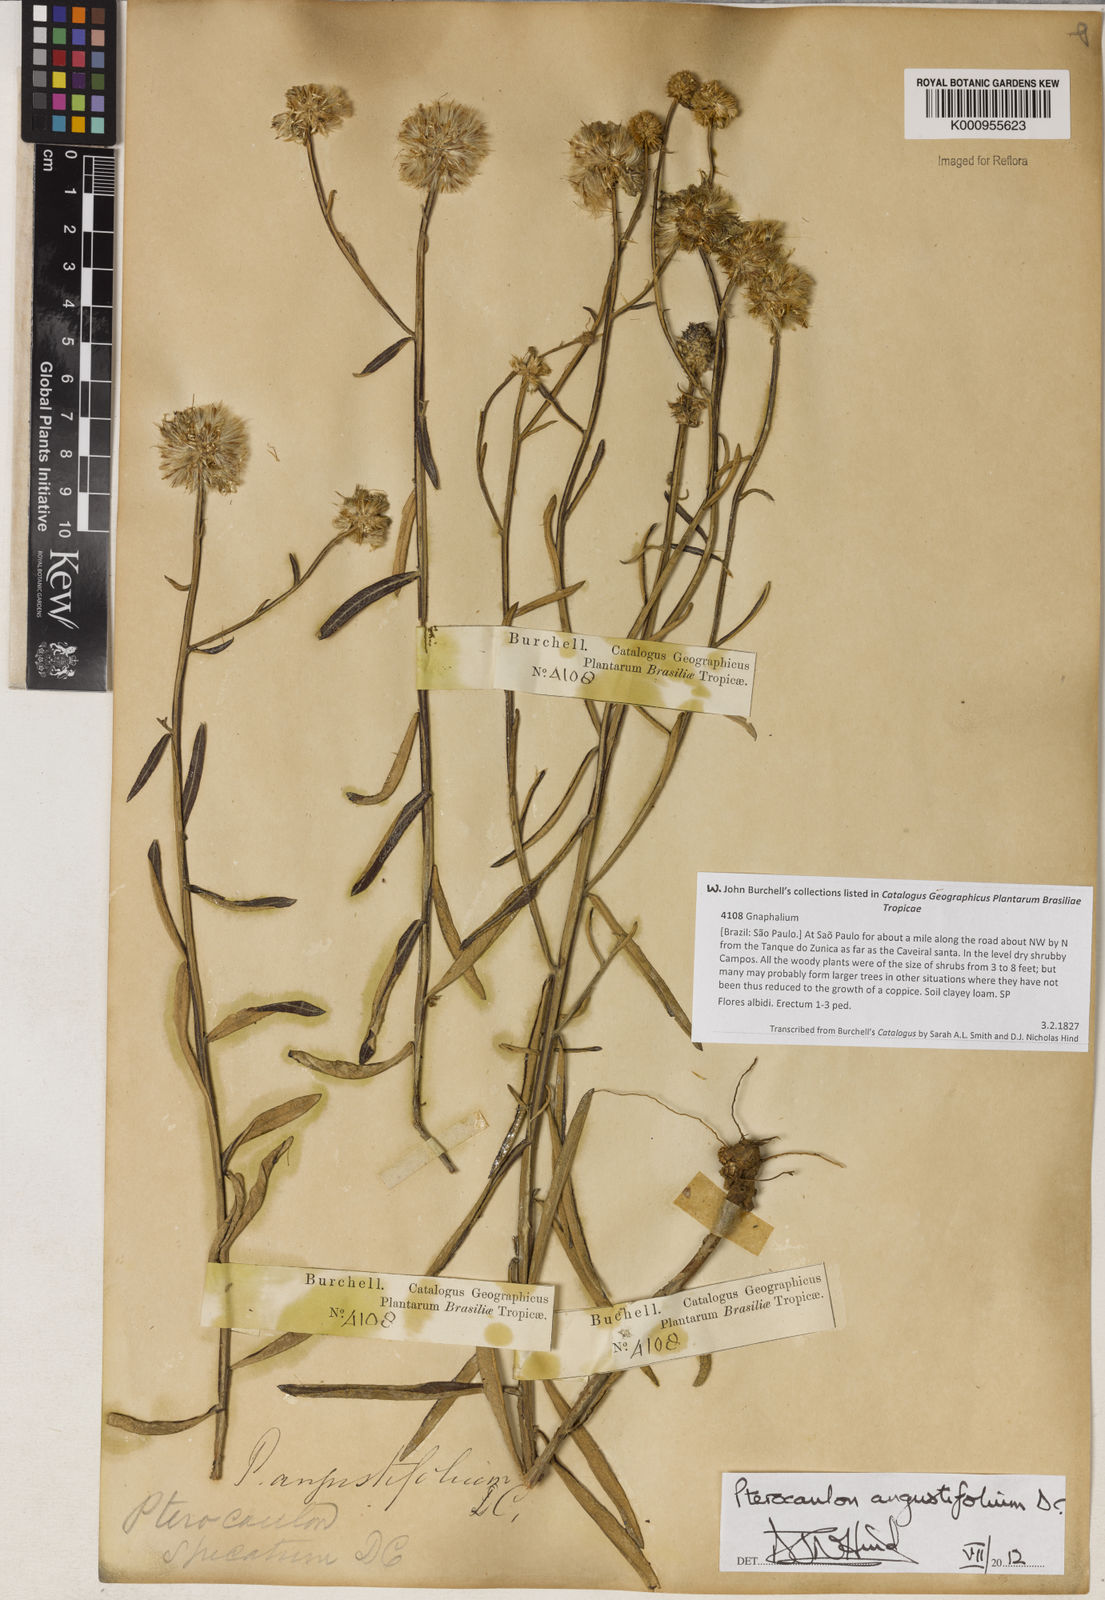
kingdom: Plantae
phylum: Tracheophyta
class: Magnoliopsida
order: Asterales
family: Asteraceae
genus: Pterocaulon
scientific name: Pterocaulon angustifolium
